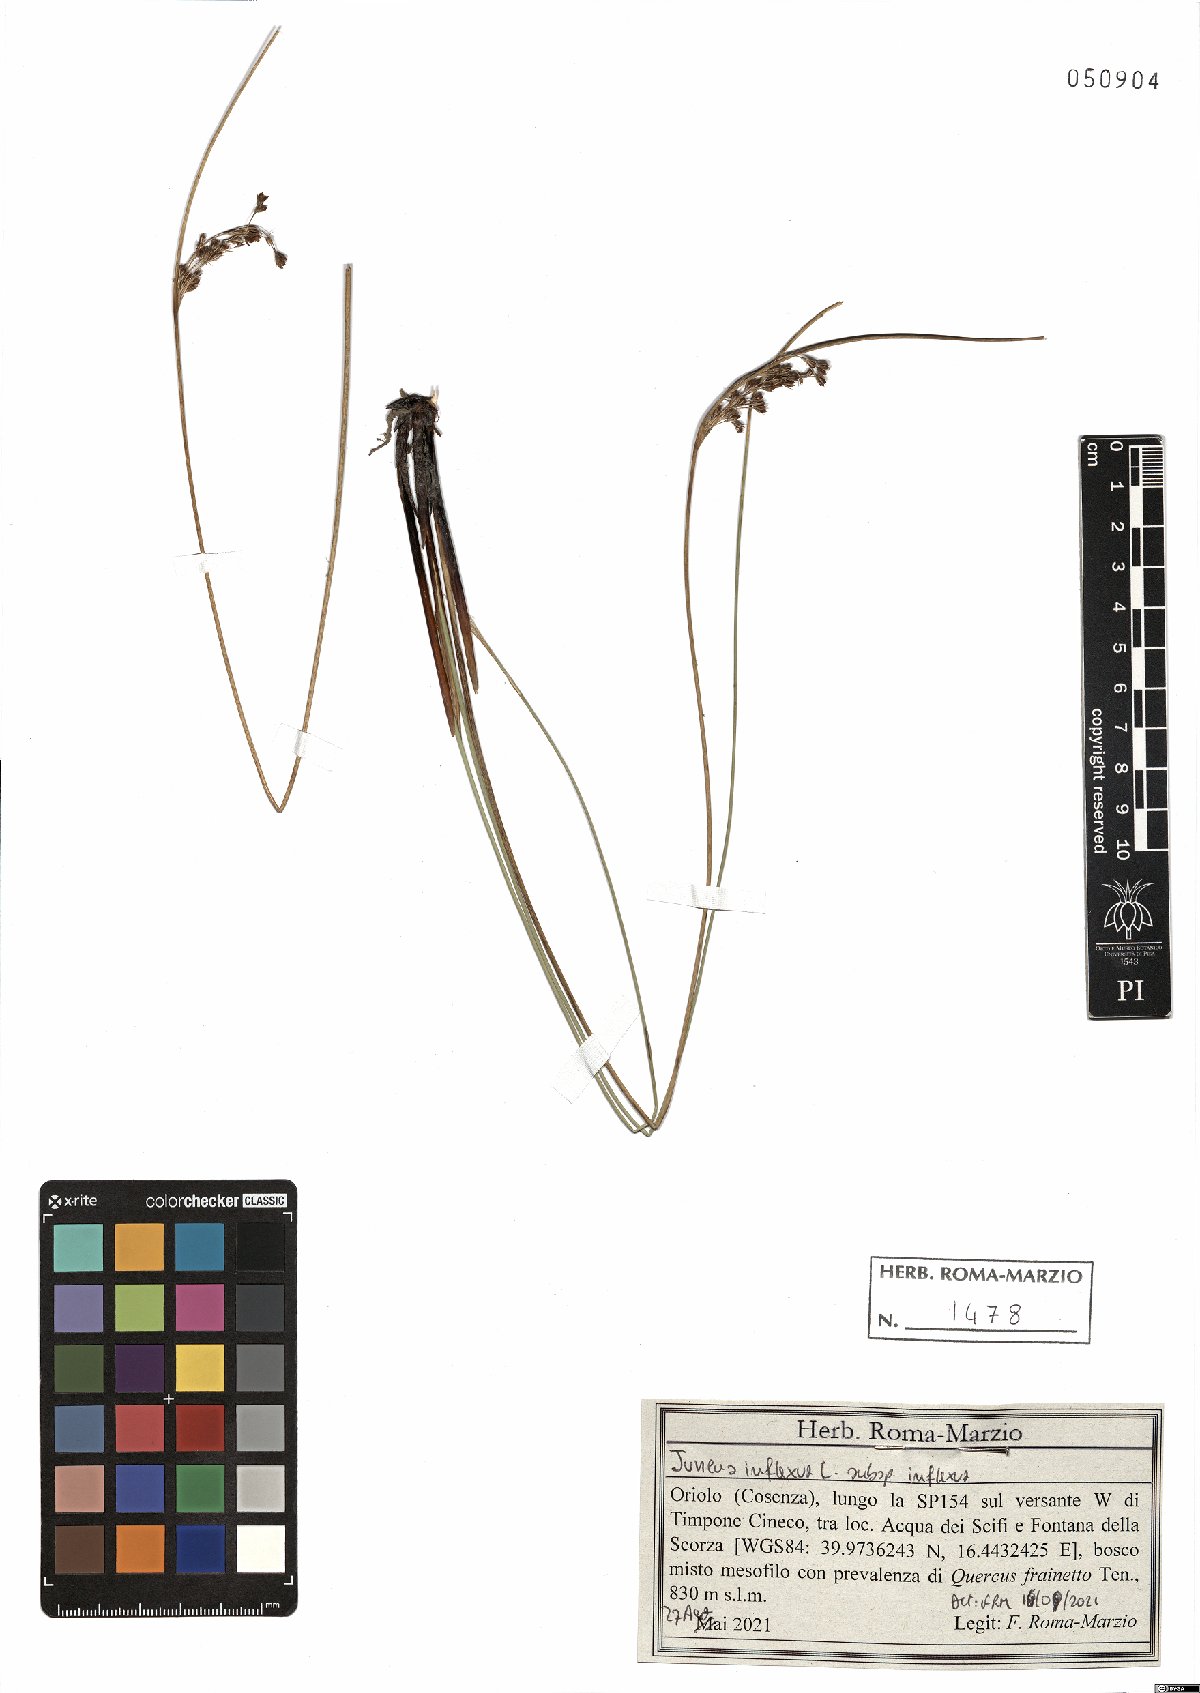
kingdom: Plantae
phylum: Tracheophyta
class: Liliopsida
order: Poales
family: Juncaceae
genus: Juncus
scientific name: Juncus inflexus
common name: Hard rush
